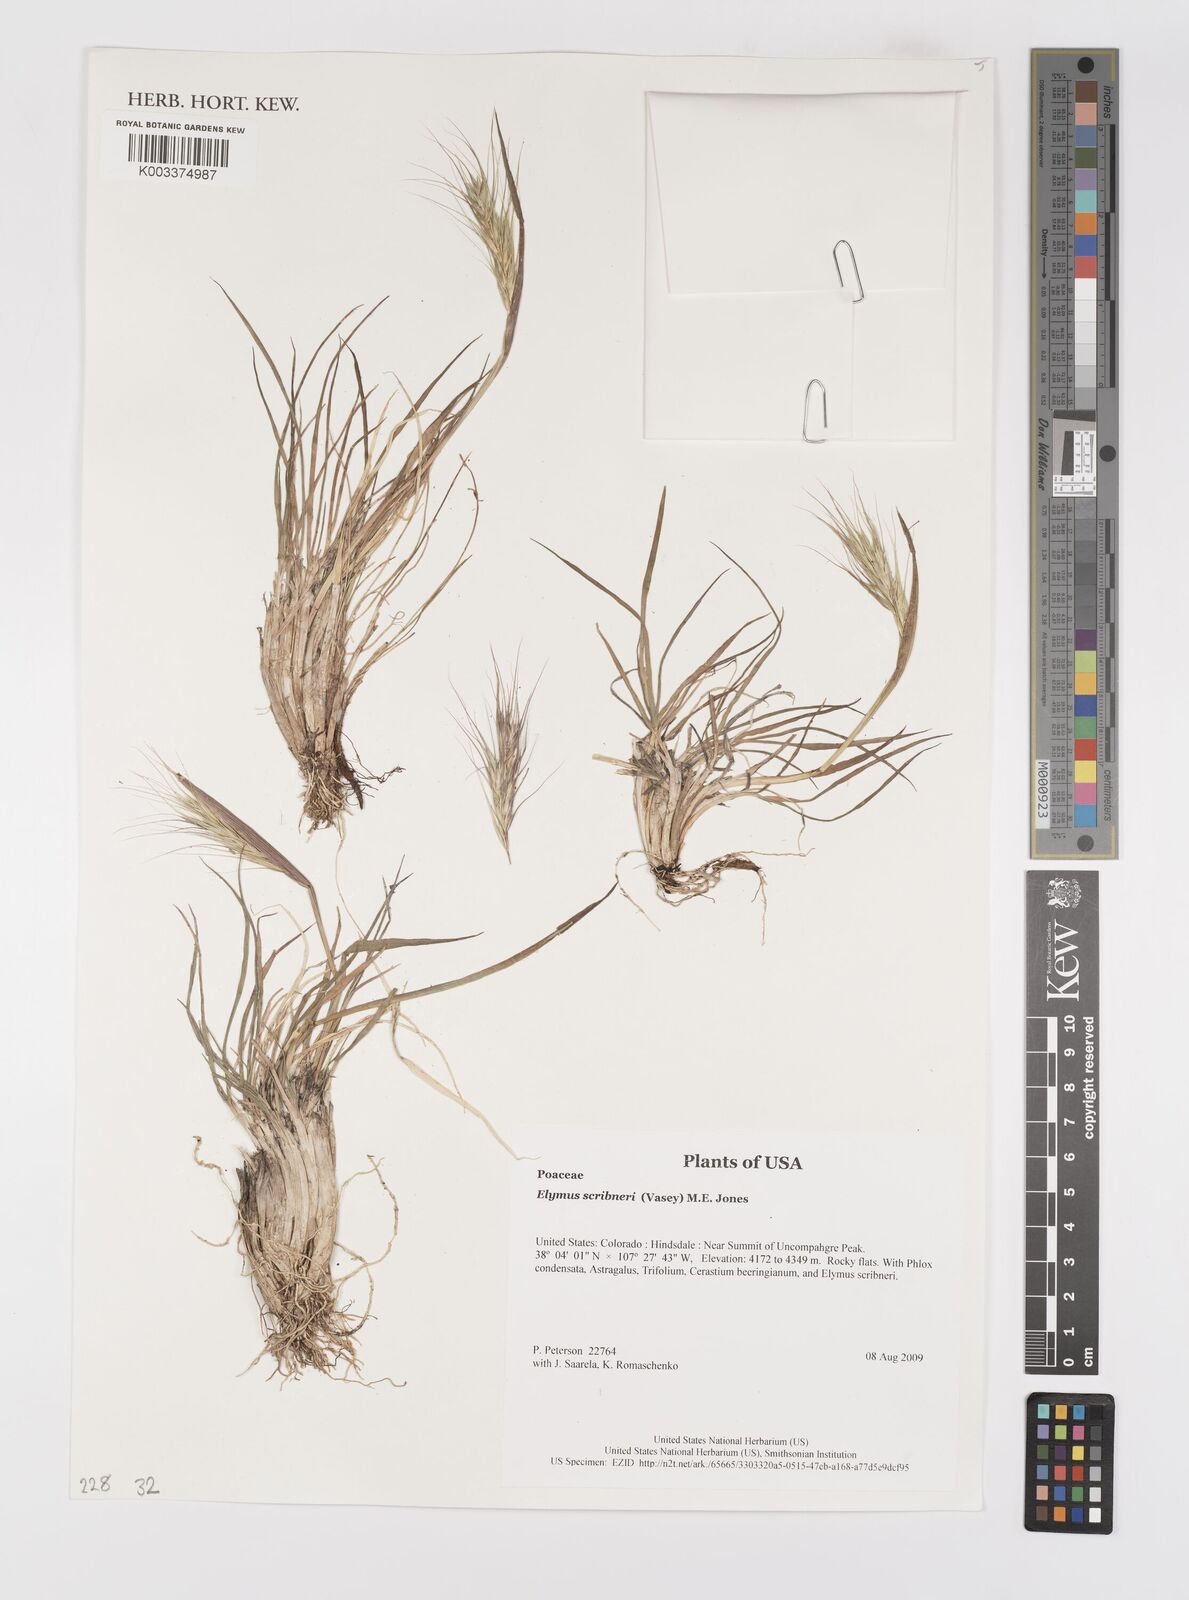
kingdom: Plantae
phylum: Tracheophyta
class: Liliopsida
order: Poales
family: Poaceae
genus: Elymus
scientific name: Elymus scribneri
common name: Scribner's wheatgrass
